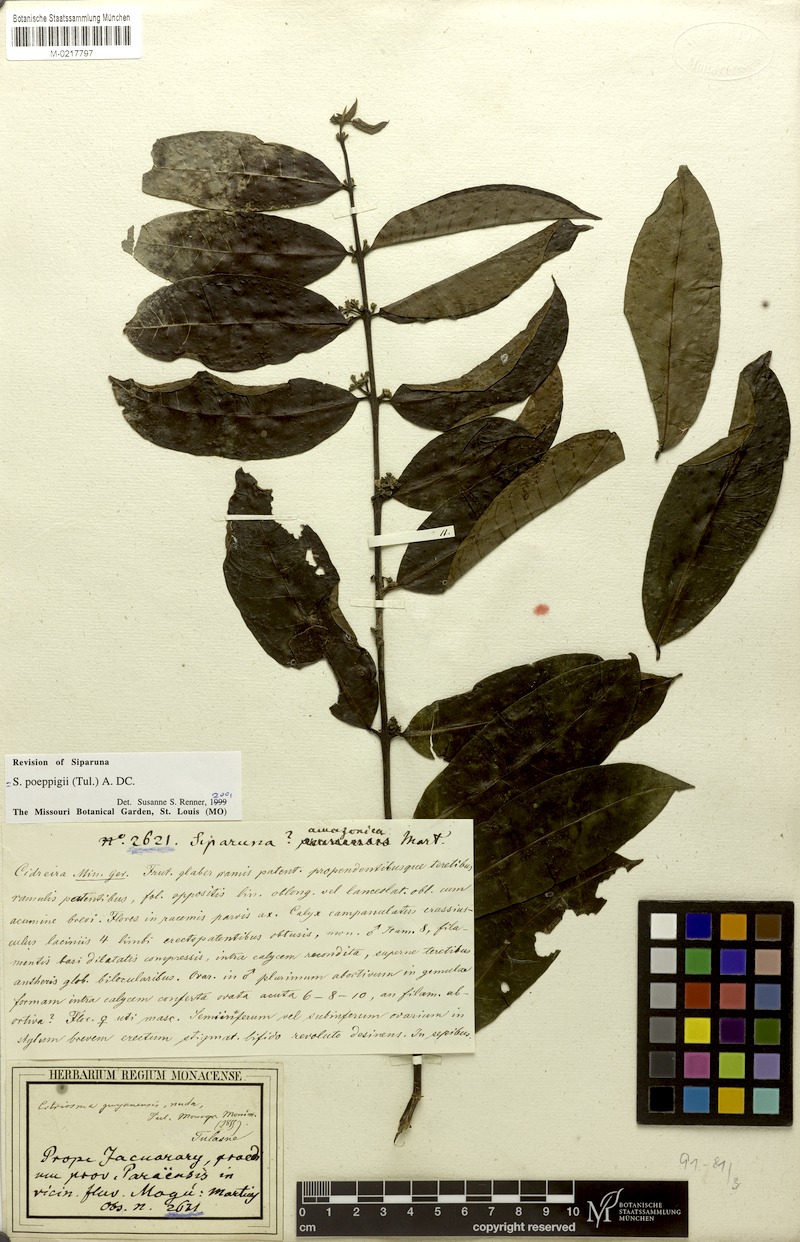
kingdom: Plantae
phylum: Tracheophyta
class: Magnoliopsida
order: Laurales
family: Siparunaceae
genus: Siparuna
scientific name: Siparuna poeppigii
